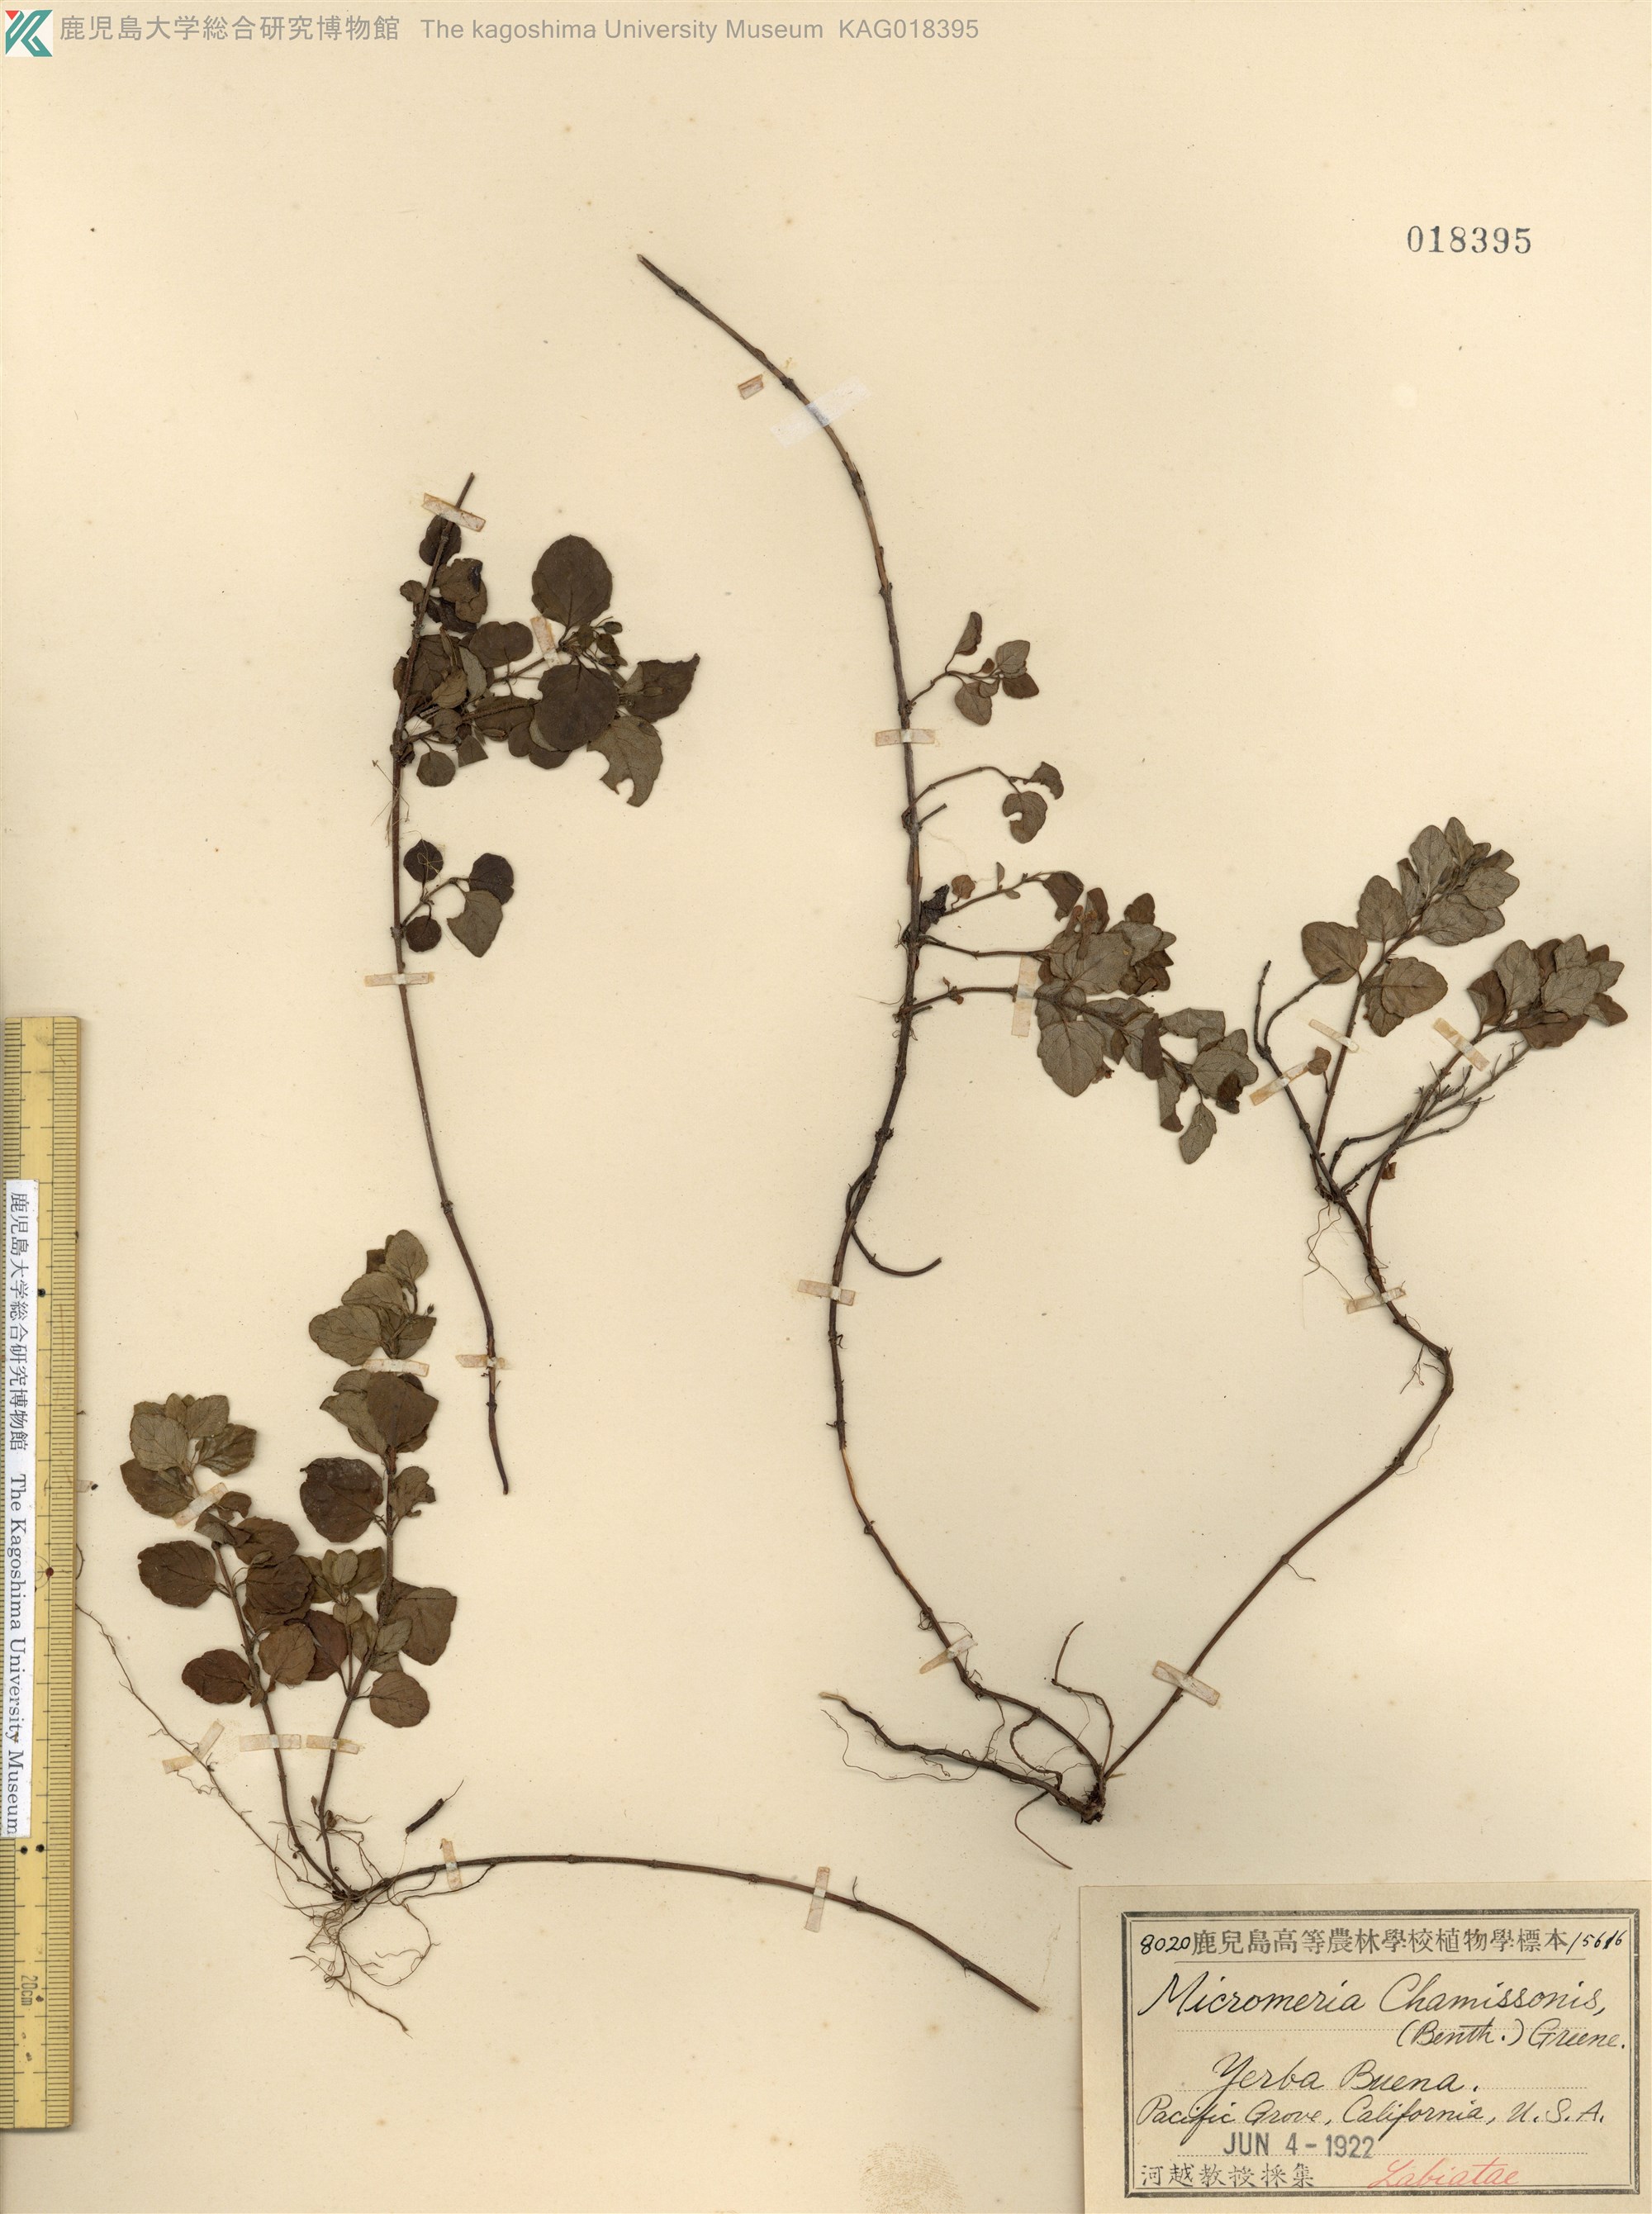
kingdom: Plantae
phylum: Tracheophyta
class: Magnoliopsida
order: Lamiales
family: Lamiaceae
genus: Micromeria
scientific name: Micromeria douglasii
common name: Yerba buena
